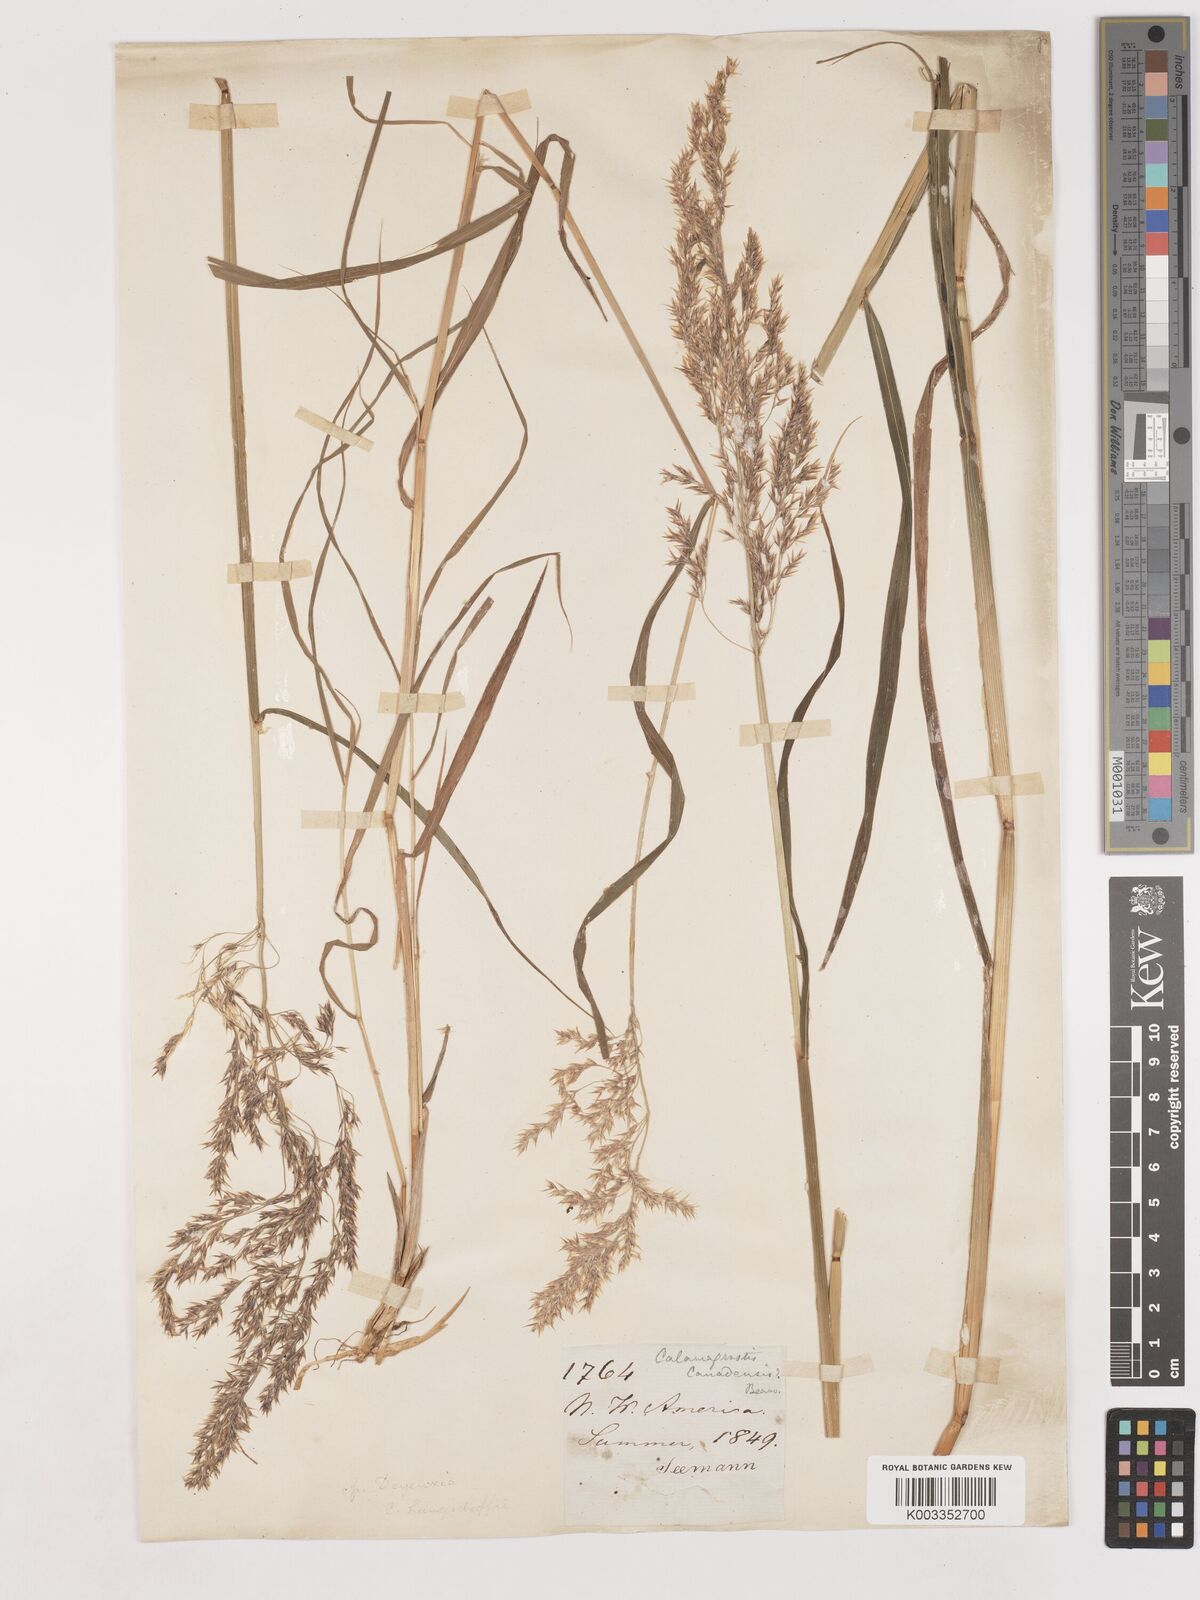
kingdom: Plantae
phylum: Tracheophyta
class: Liliopsida
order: Poales
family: Poaceae
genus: Calamagrostis
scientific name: Calamagrostis canadensis
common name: Canada bluejoint
